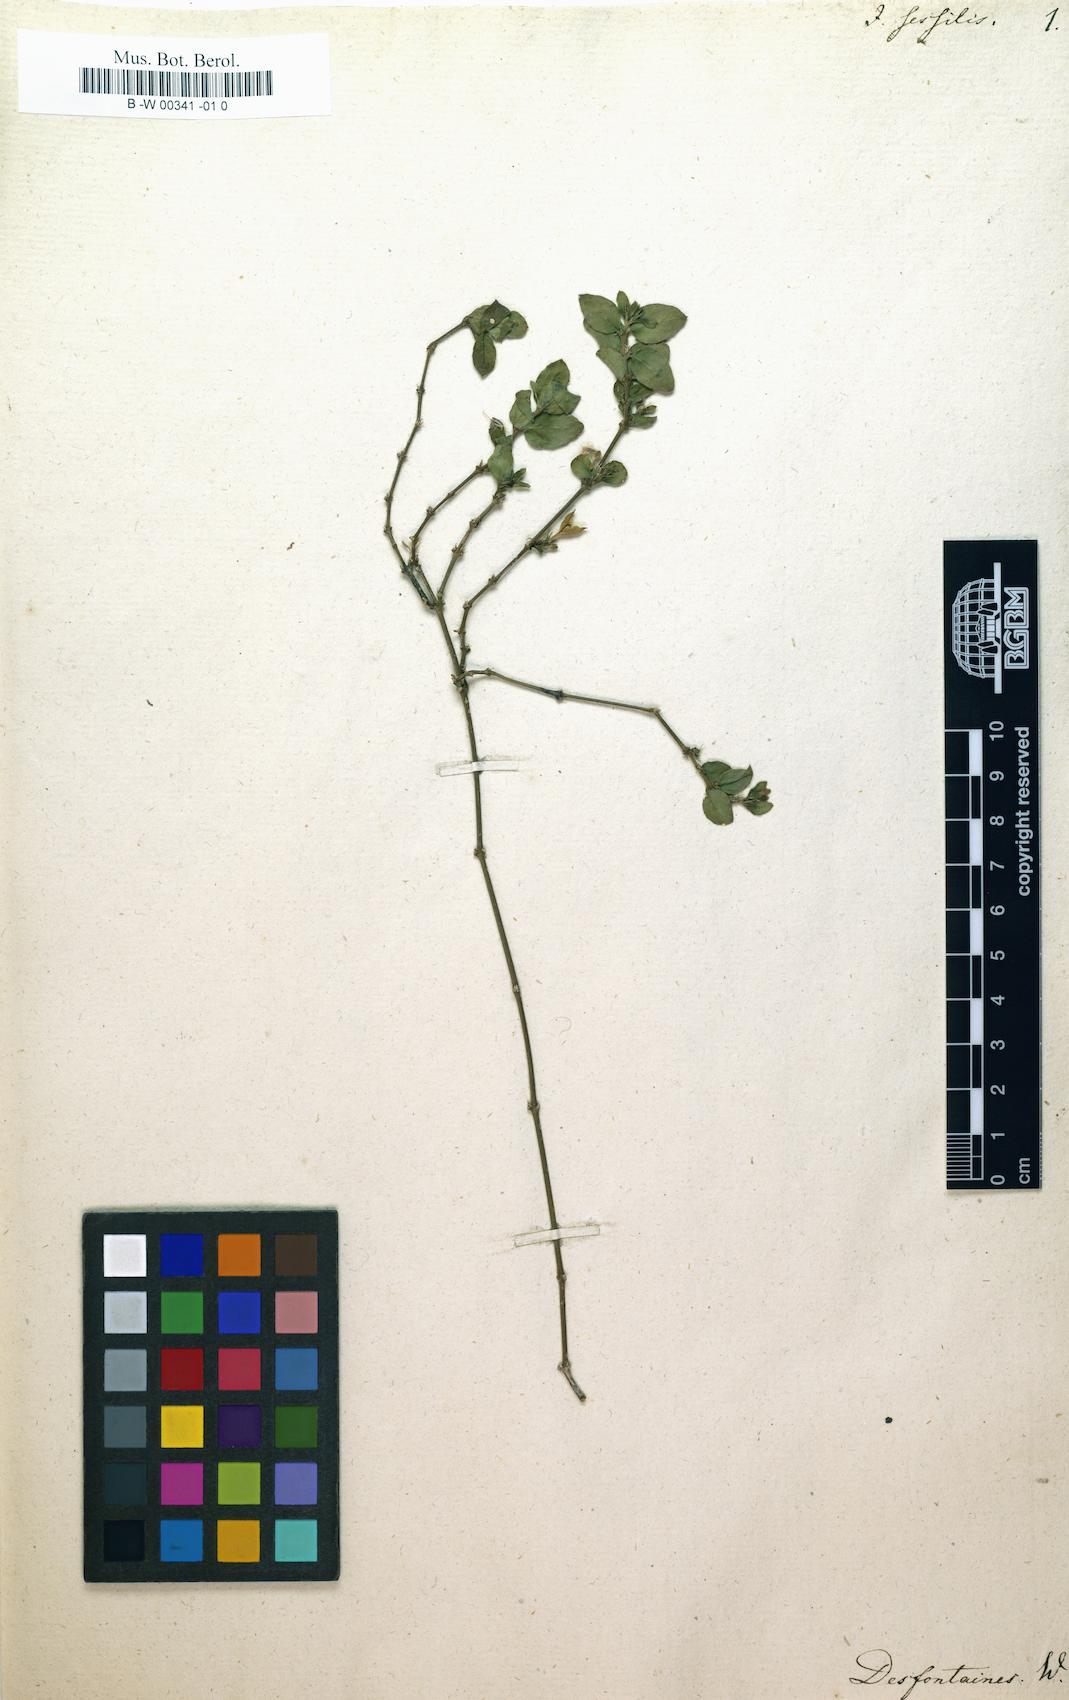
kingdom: Plantae
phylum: Tracheophyta
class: Magnoliopsida
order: Lamiales
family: Acanthaceae
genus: Dianthera
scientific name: Dianthera sessilis
